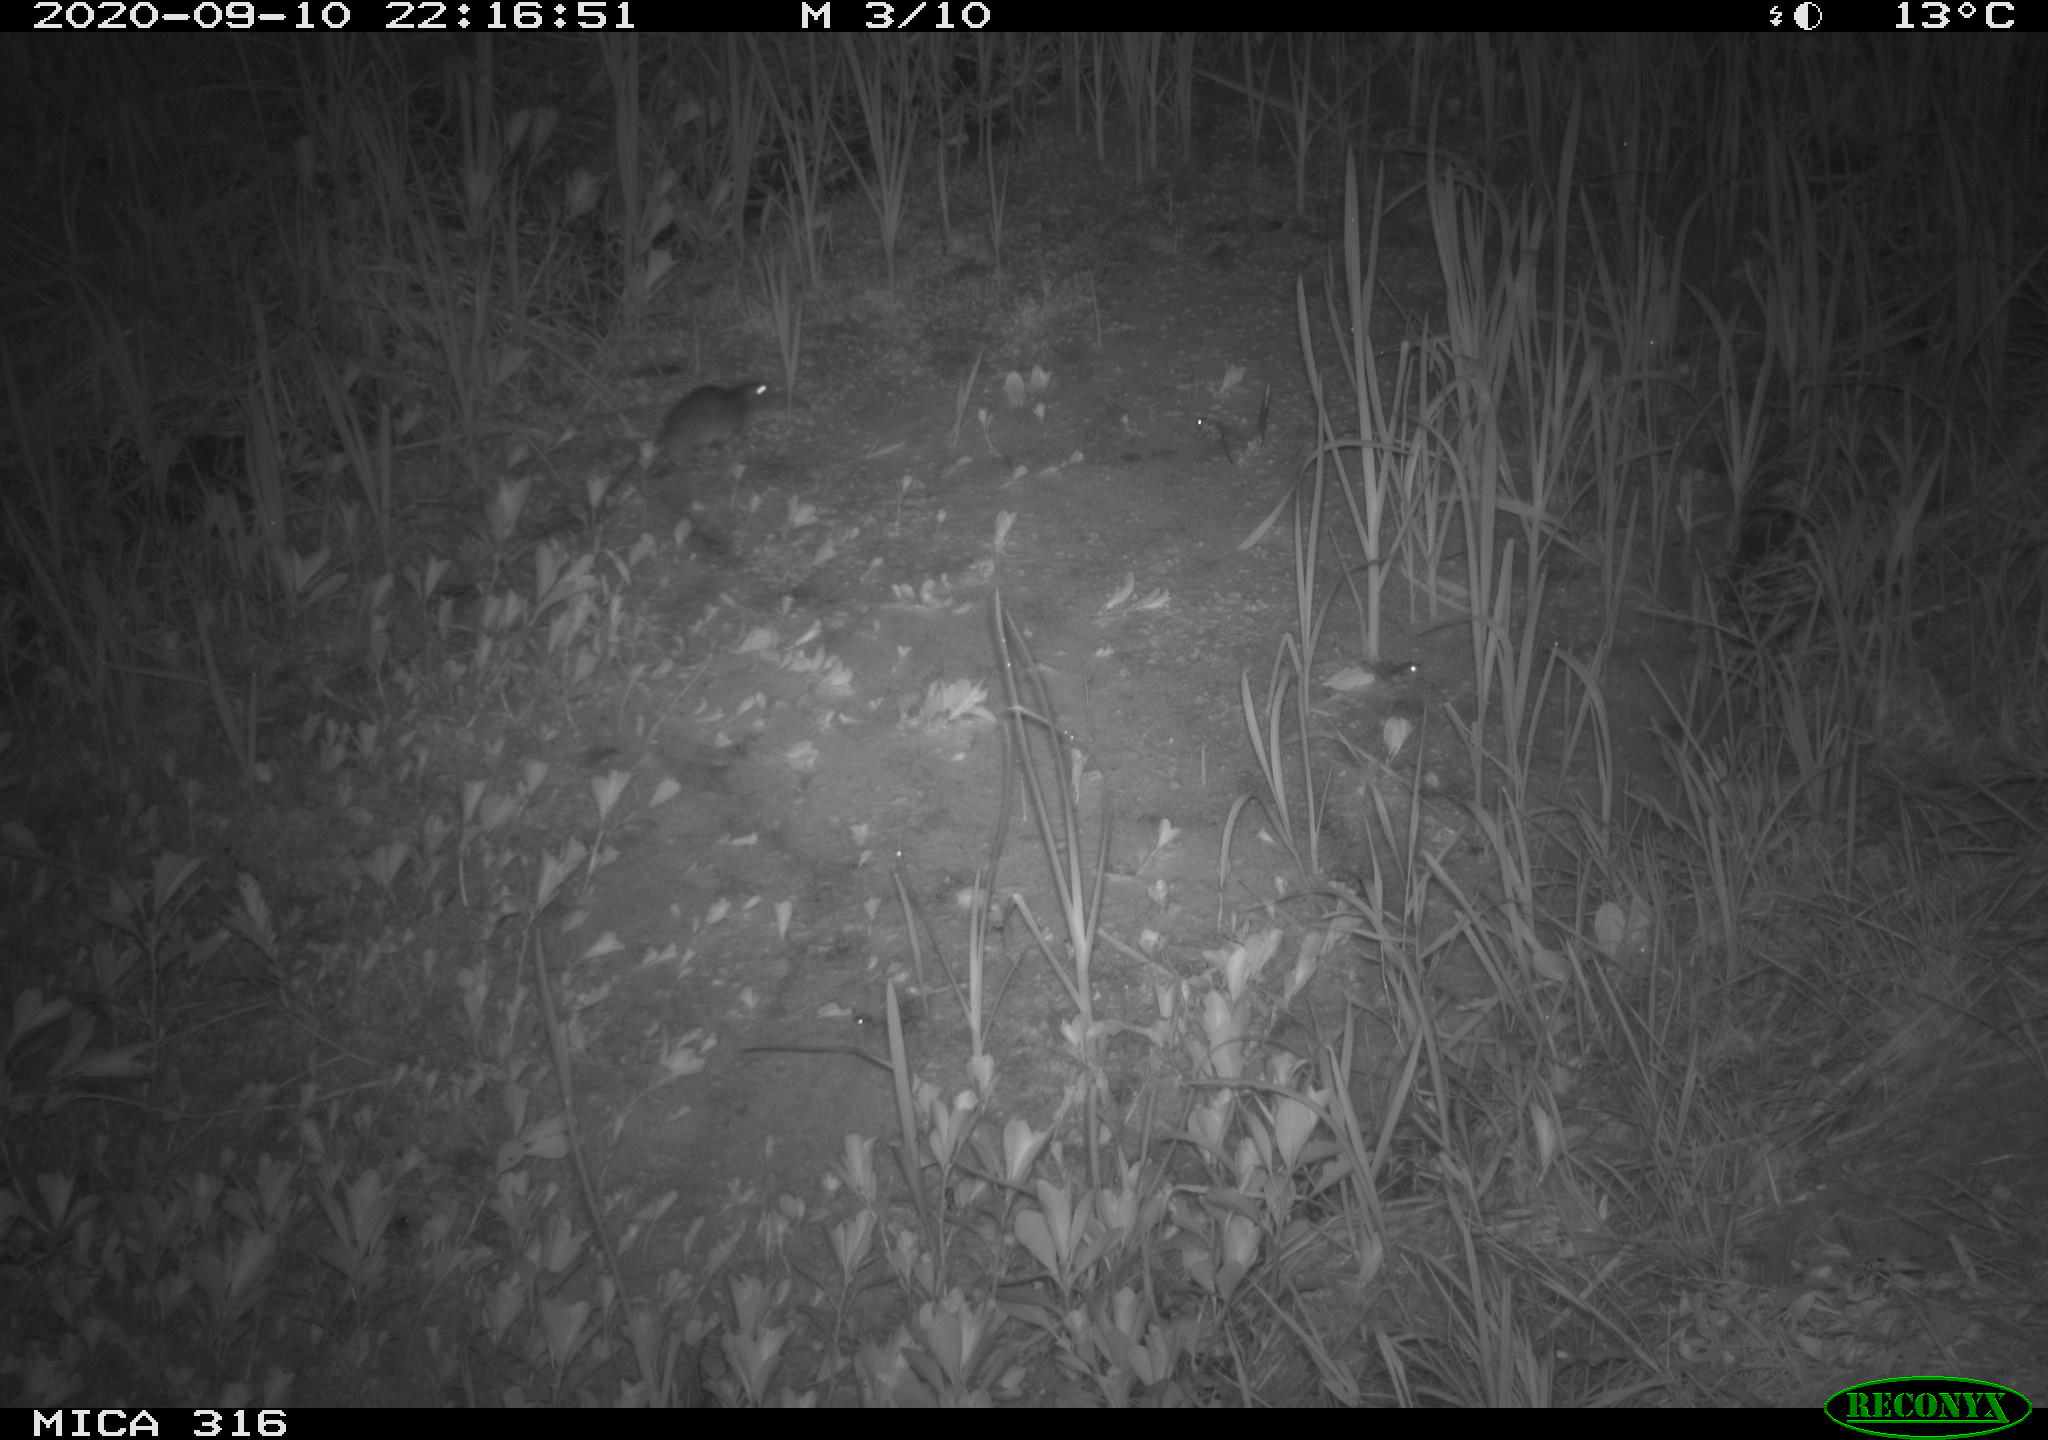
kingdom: Animalia
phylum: Chordata
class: Mammalia
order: Rodentia
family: Muridae
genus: Rattus
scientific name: Rattus norvegicus
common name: Brown rat
